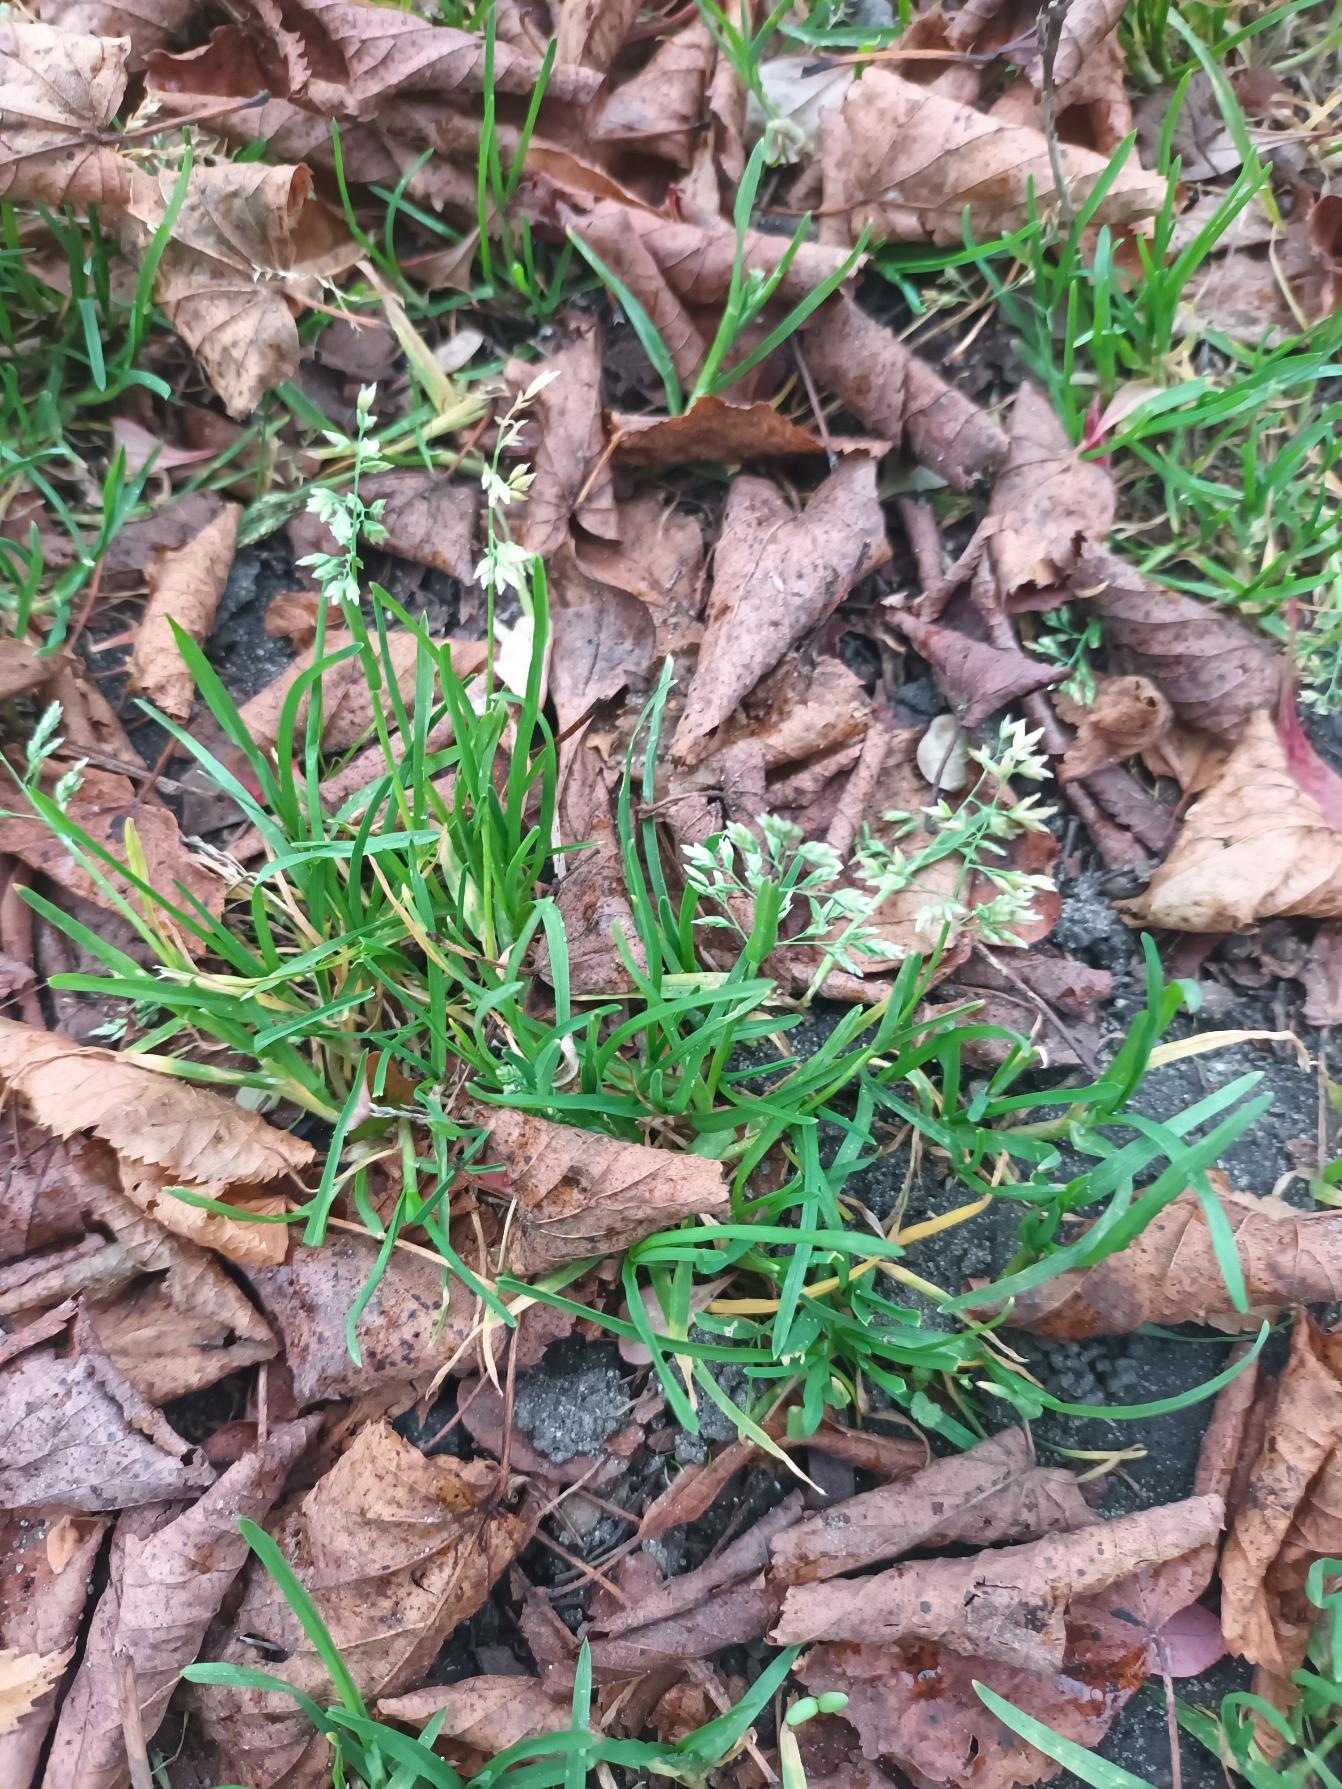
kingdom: Plantae
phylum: Tracheophyta
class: Liliopsida
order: Poales
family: Poaceae
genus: Poa
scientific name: Poa annua
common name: Enårig rapgræs
